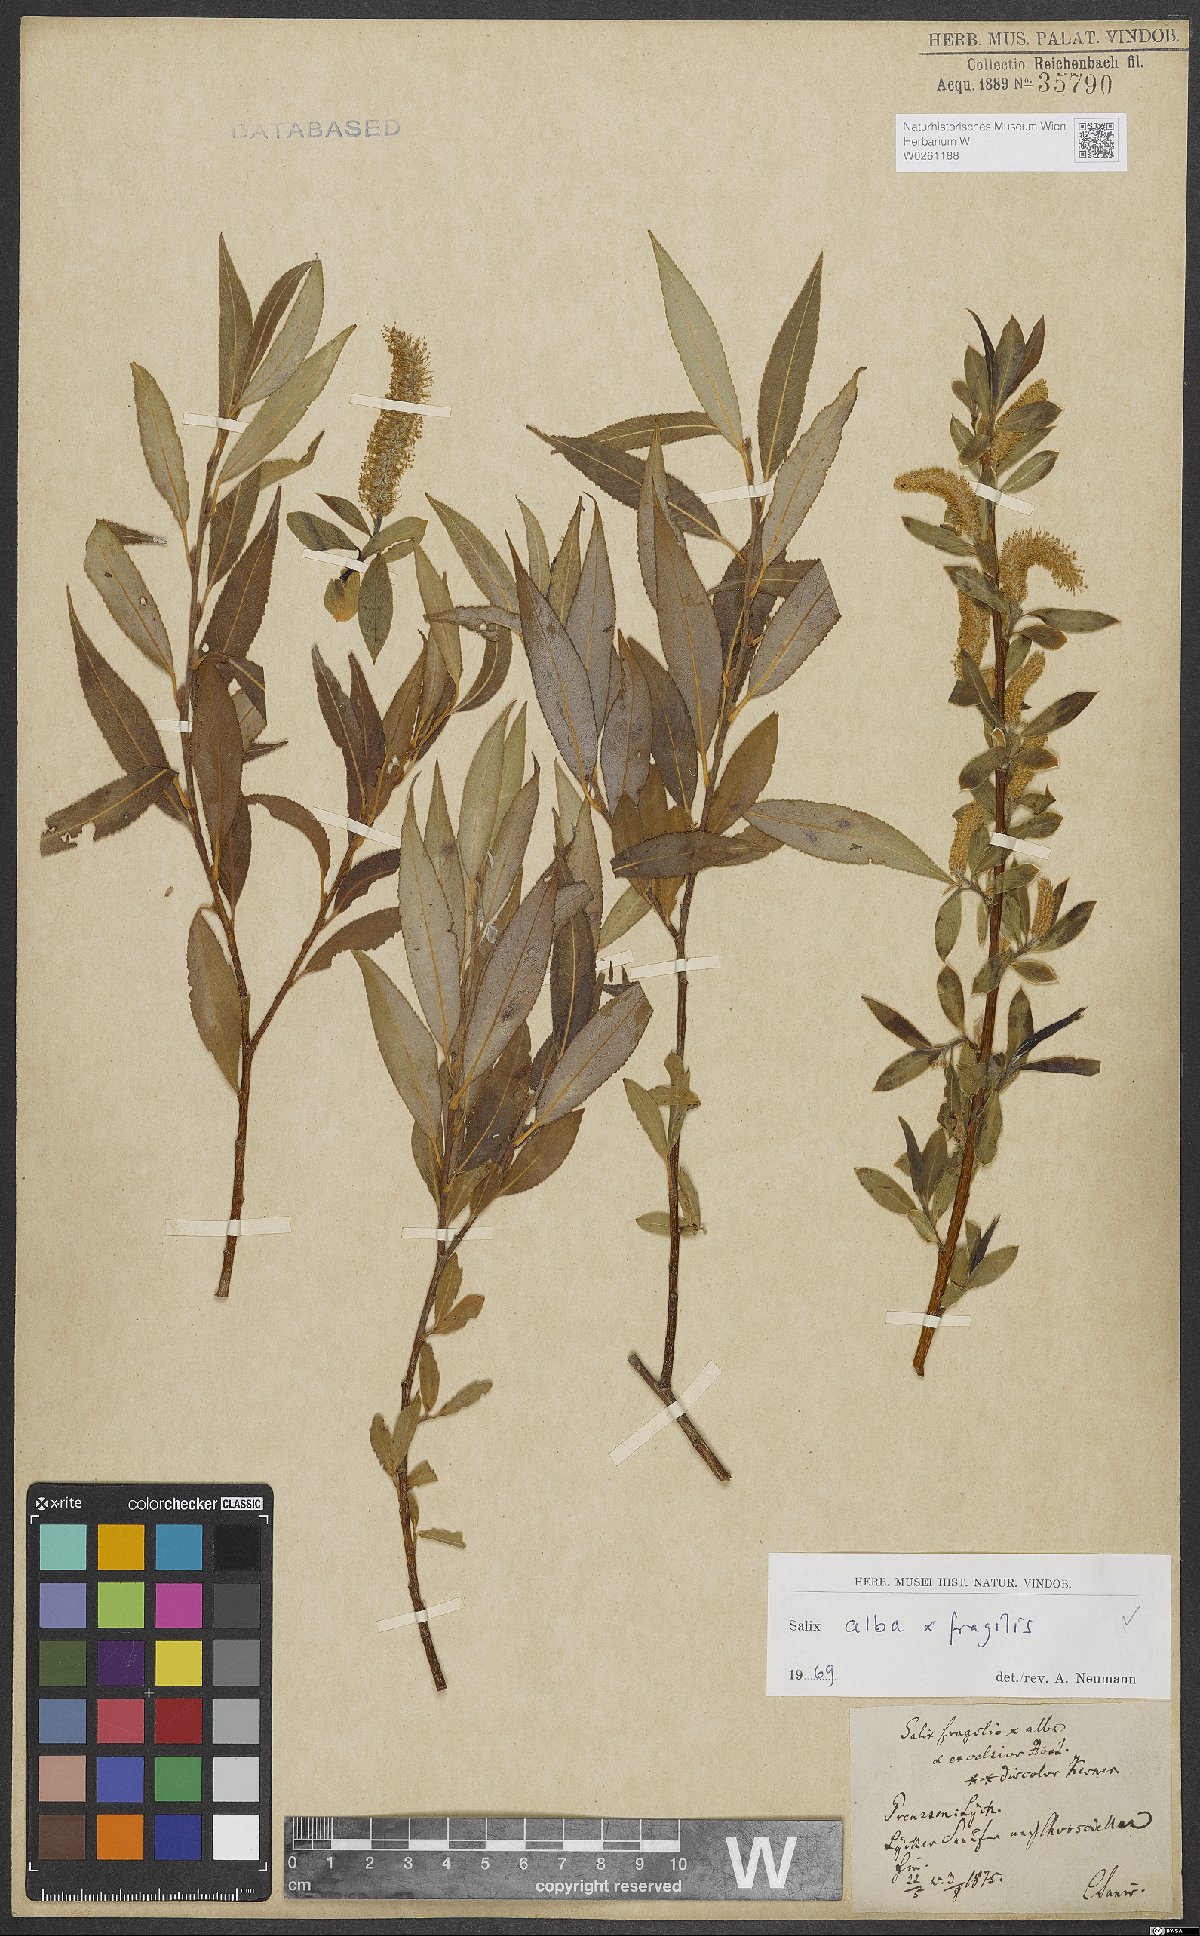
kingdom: Plantae
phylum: Tracheophyta
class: Magnoliopsida
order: Malpighiales
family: Salicaceae
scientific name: Salicaceae
